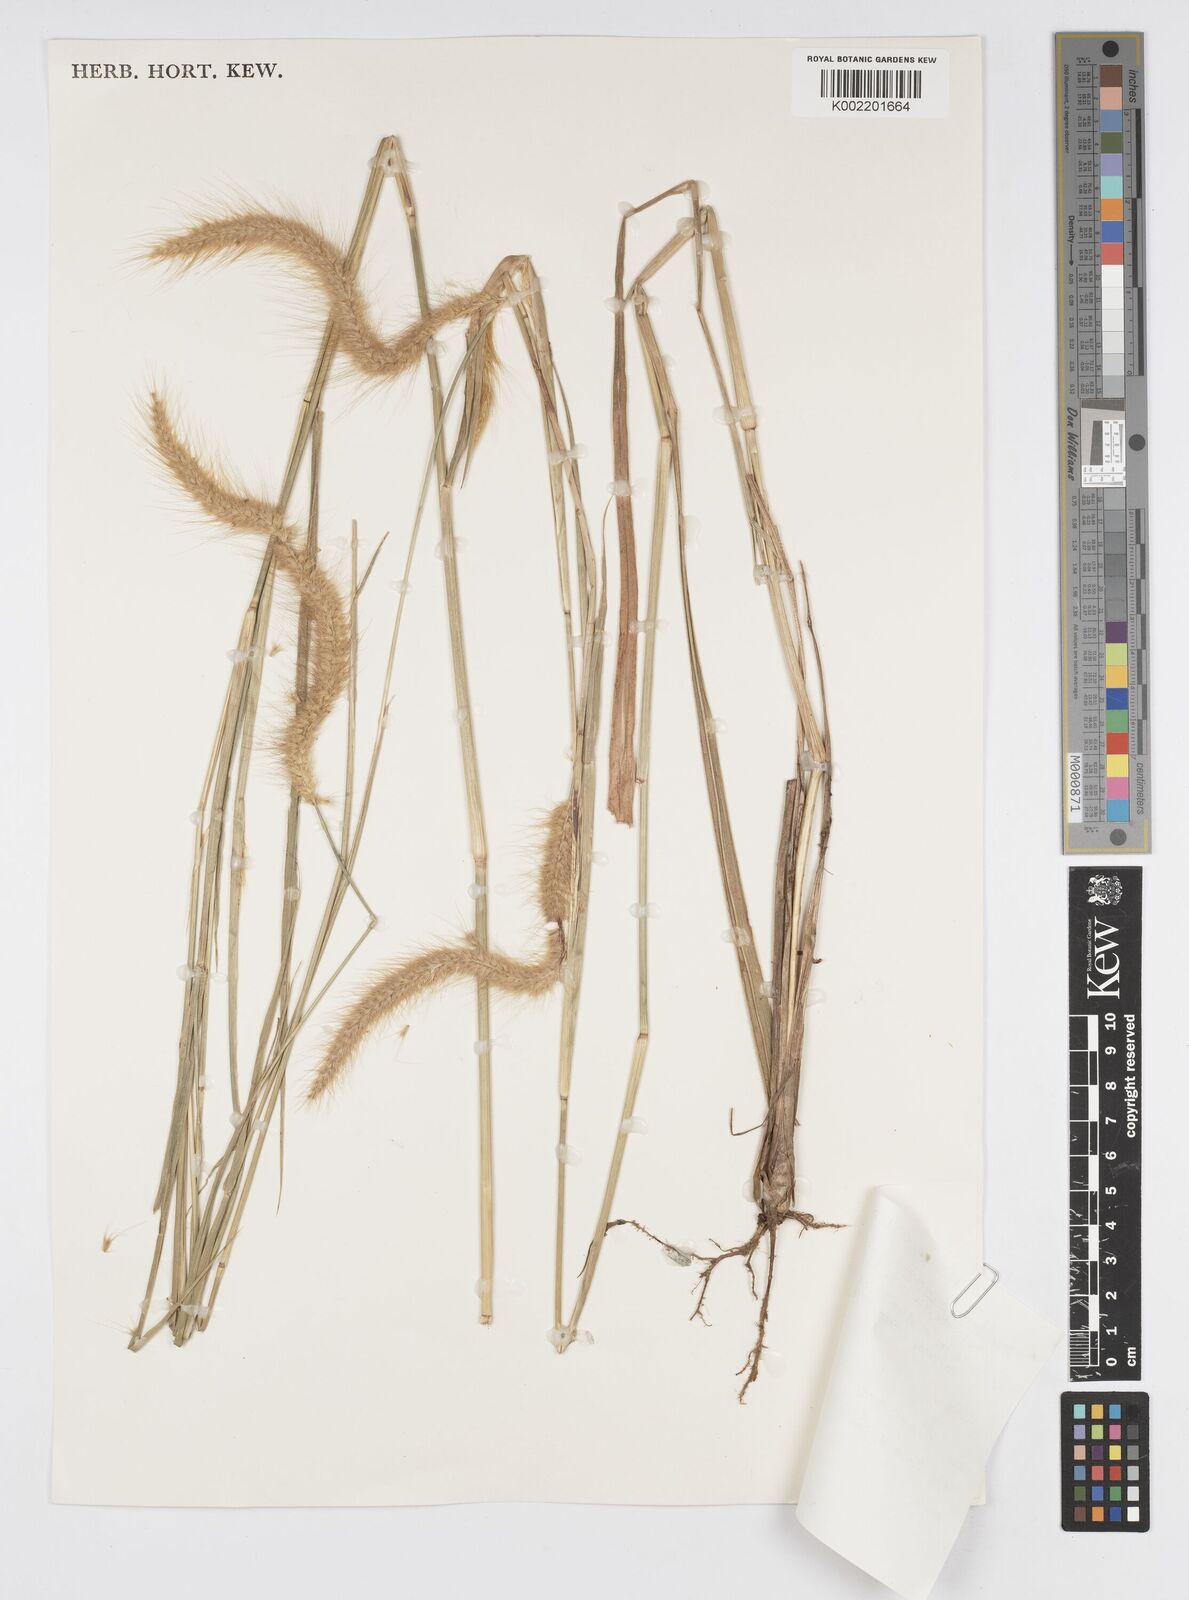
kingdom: Plantae
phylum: Tracheophyta
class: Liliopsida
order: Poales
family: Poaceae
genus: Setaria
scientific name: Setaria parviflora
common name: Knotroot bristle-grass
